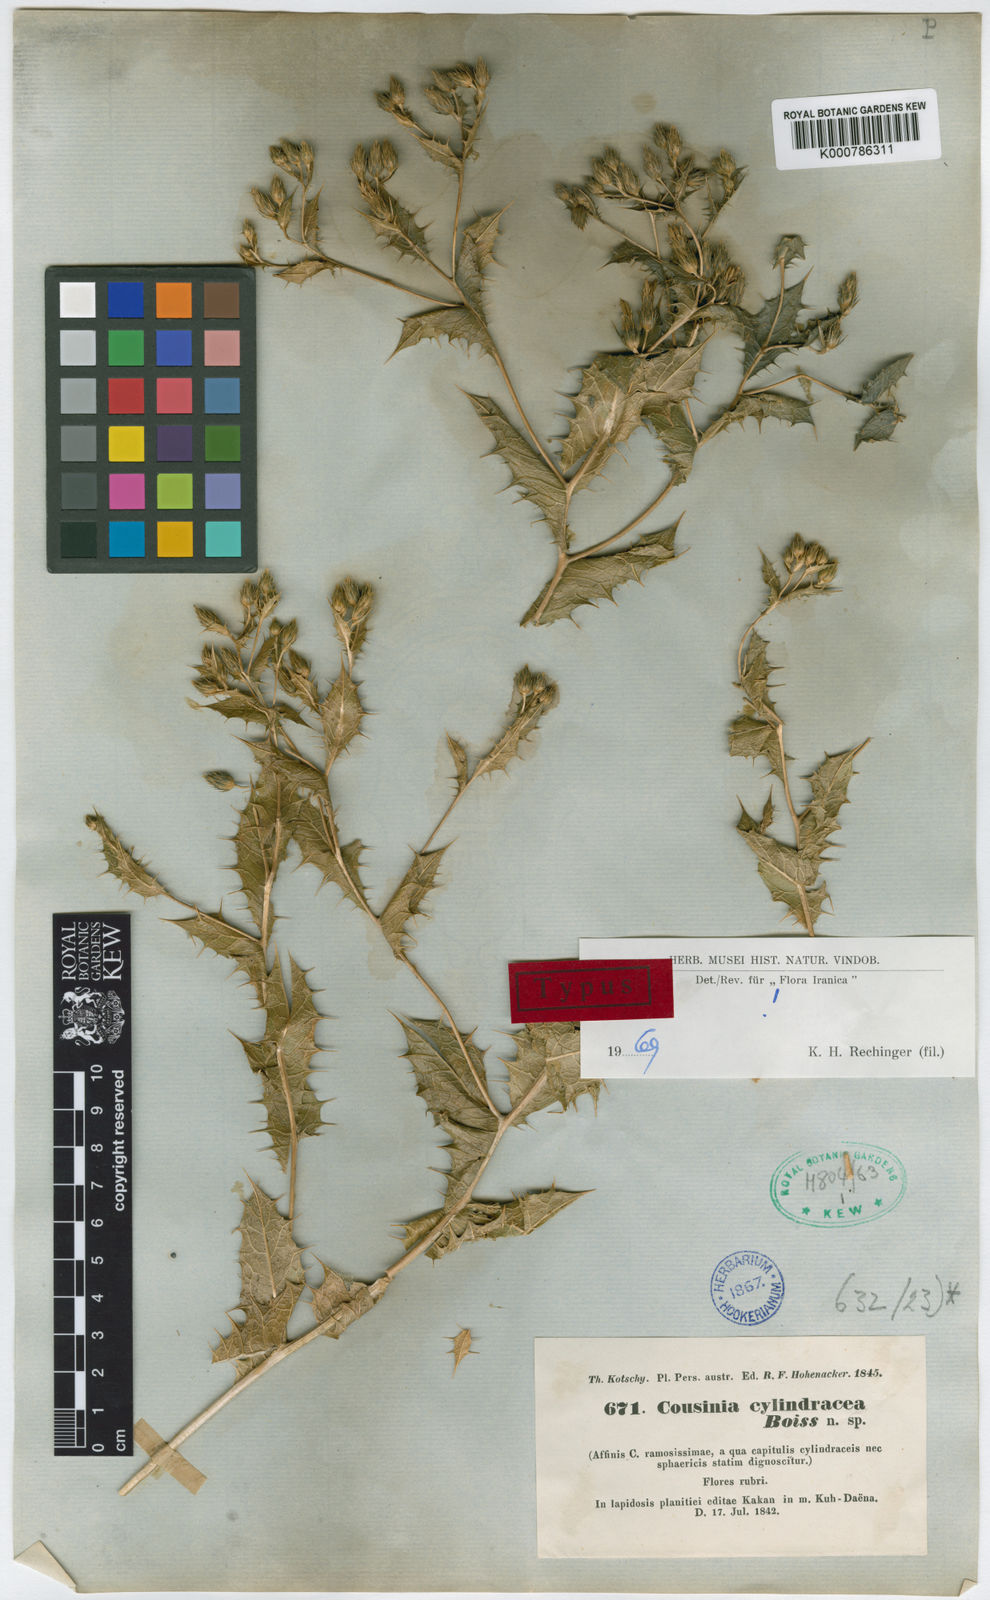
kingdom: Plantae
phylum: Tracheophyta
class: Magnoliopsida
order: Asterales
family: Asteraceae
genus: Cousinia
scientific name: Cousinia cylindracea
